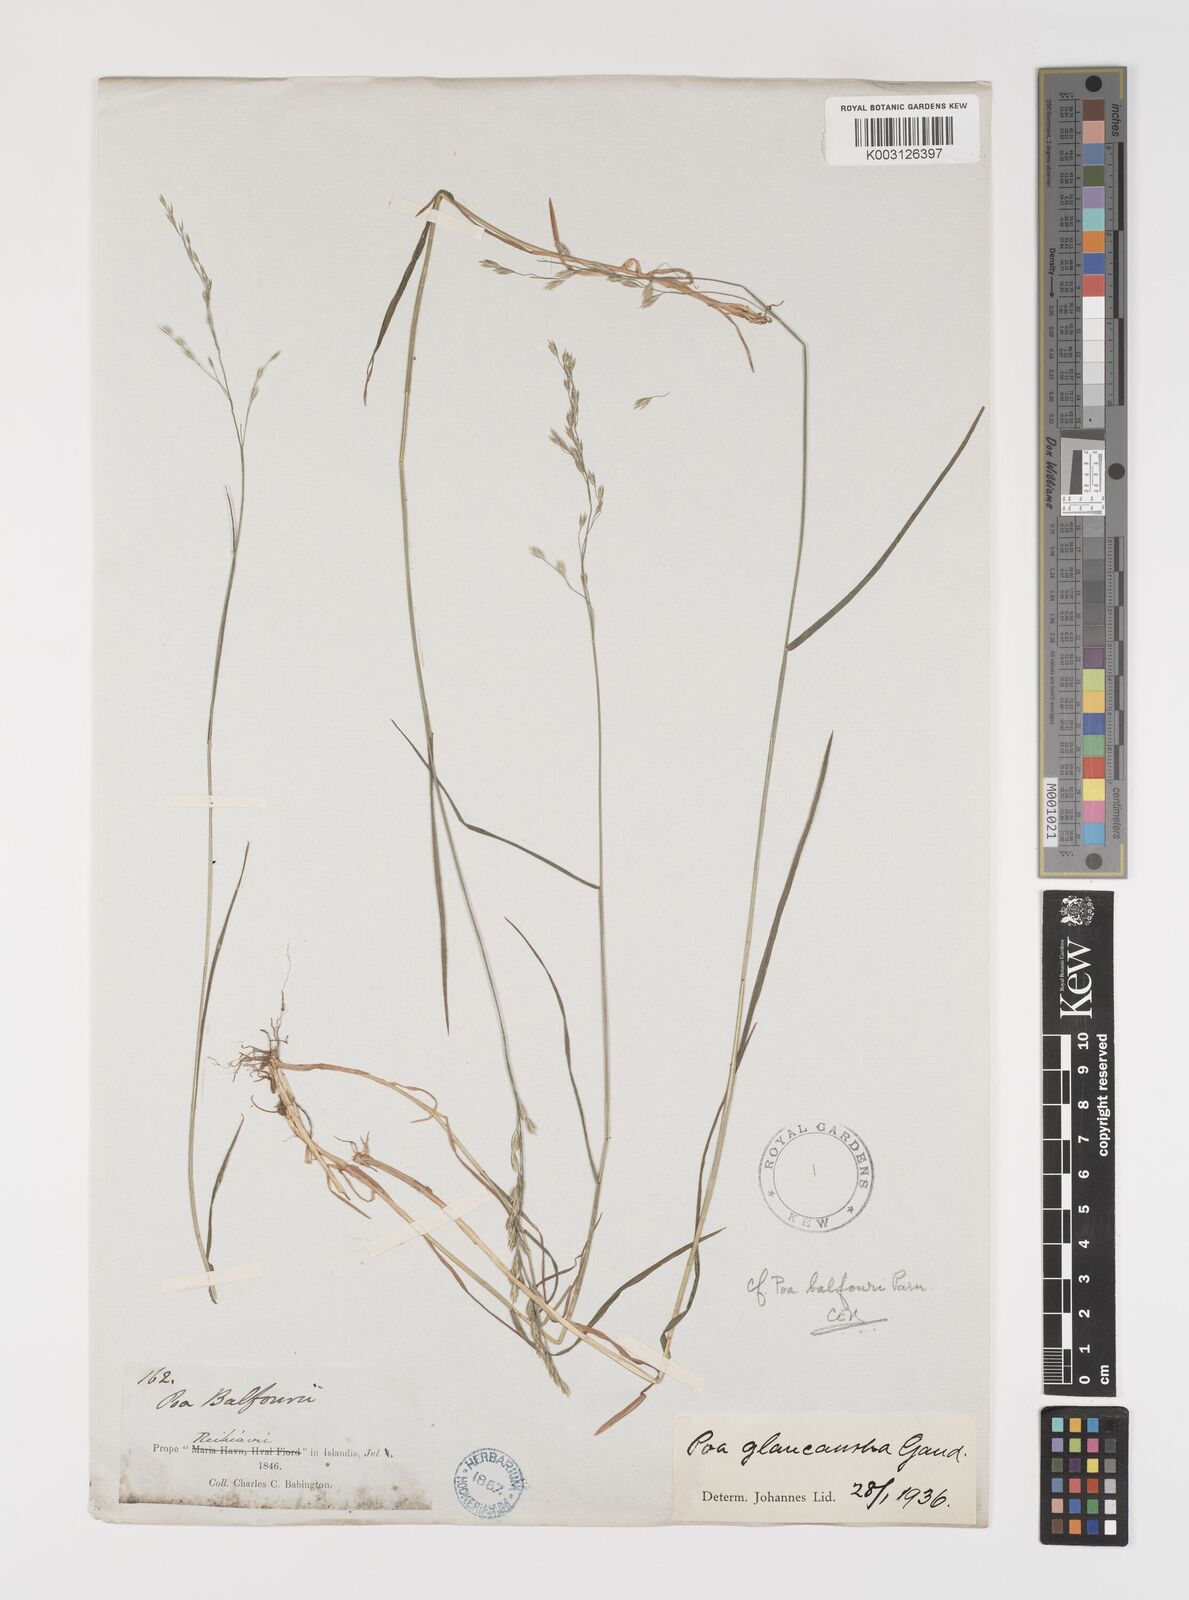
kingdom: Plantae
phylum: Tracheophyta
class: Liliopsida
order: Poales
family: Poaceae
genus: Poa
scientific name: Poa nemoralis
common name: Wood bluegrass
